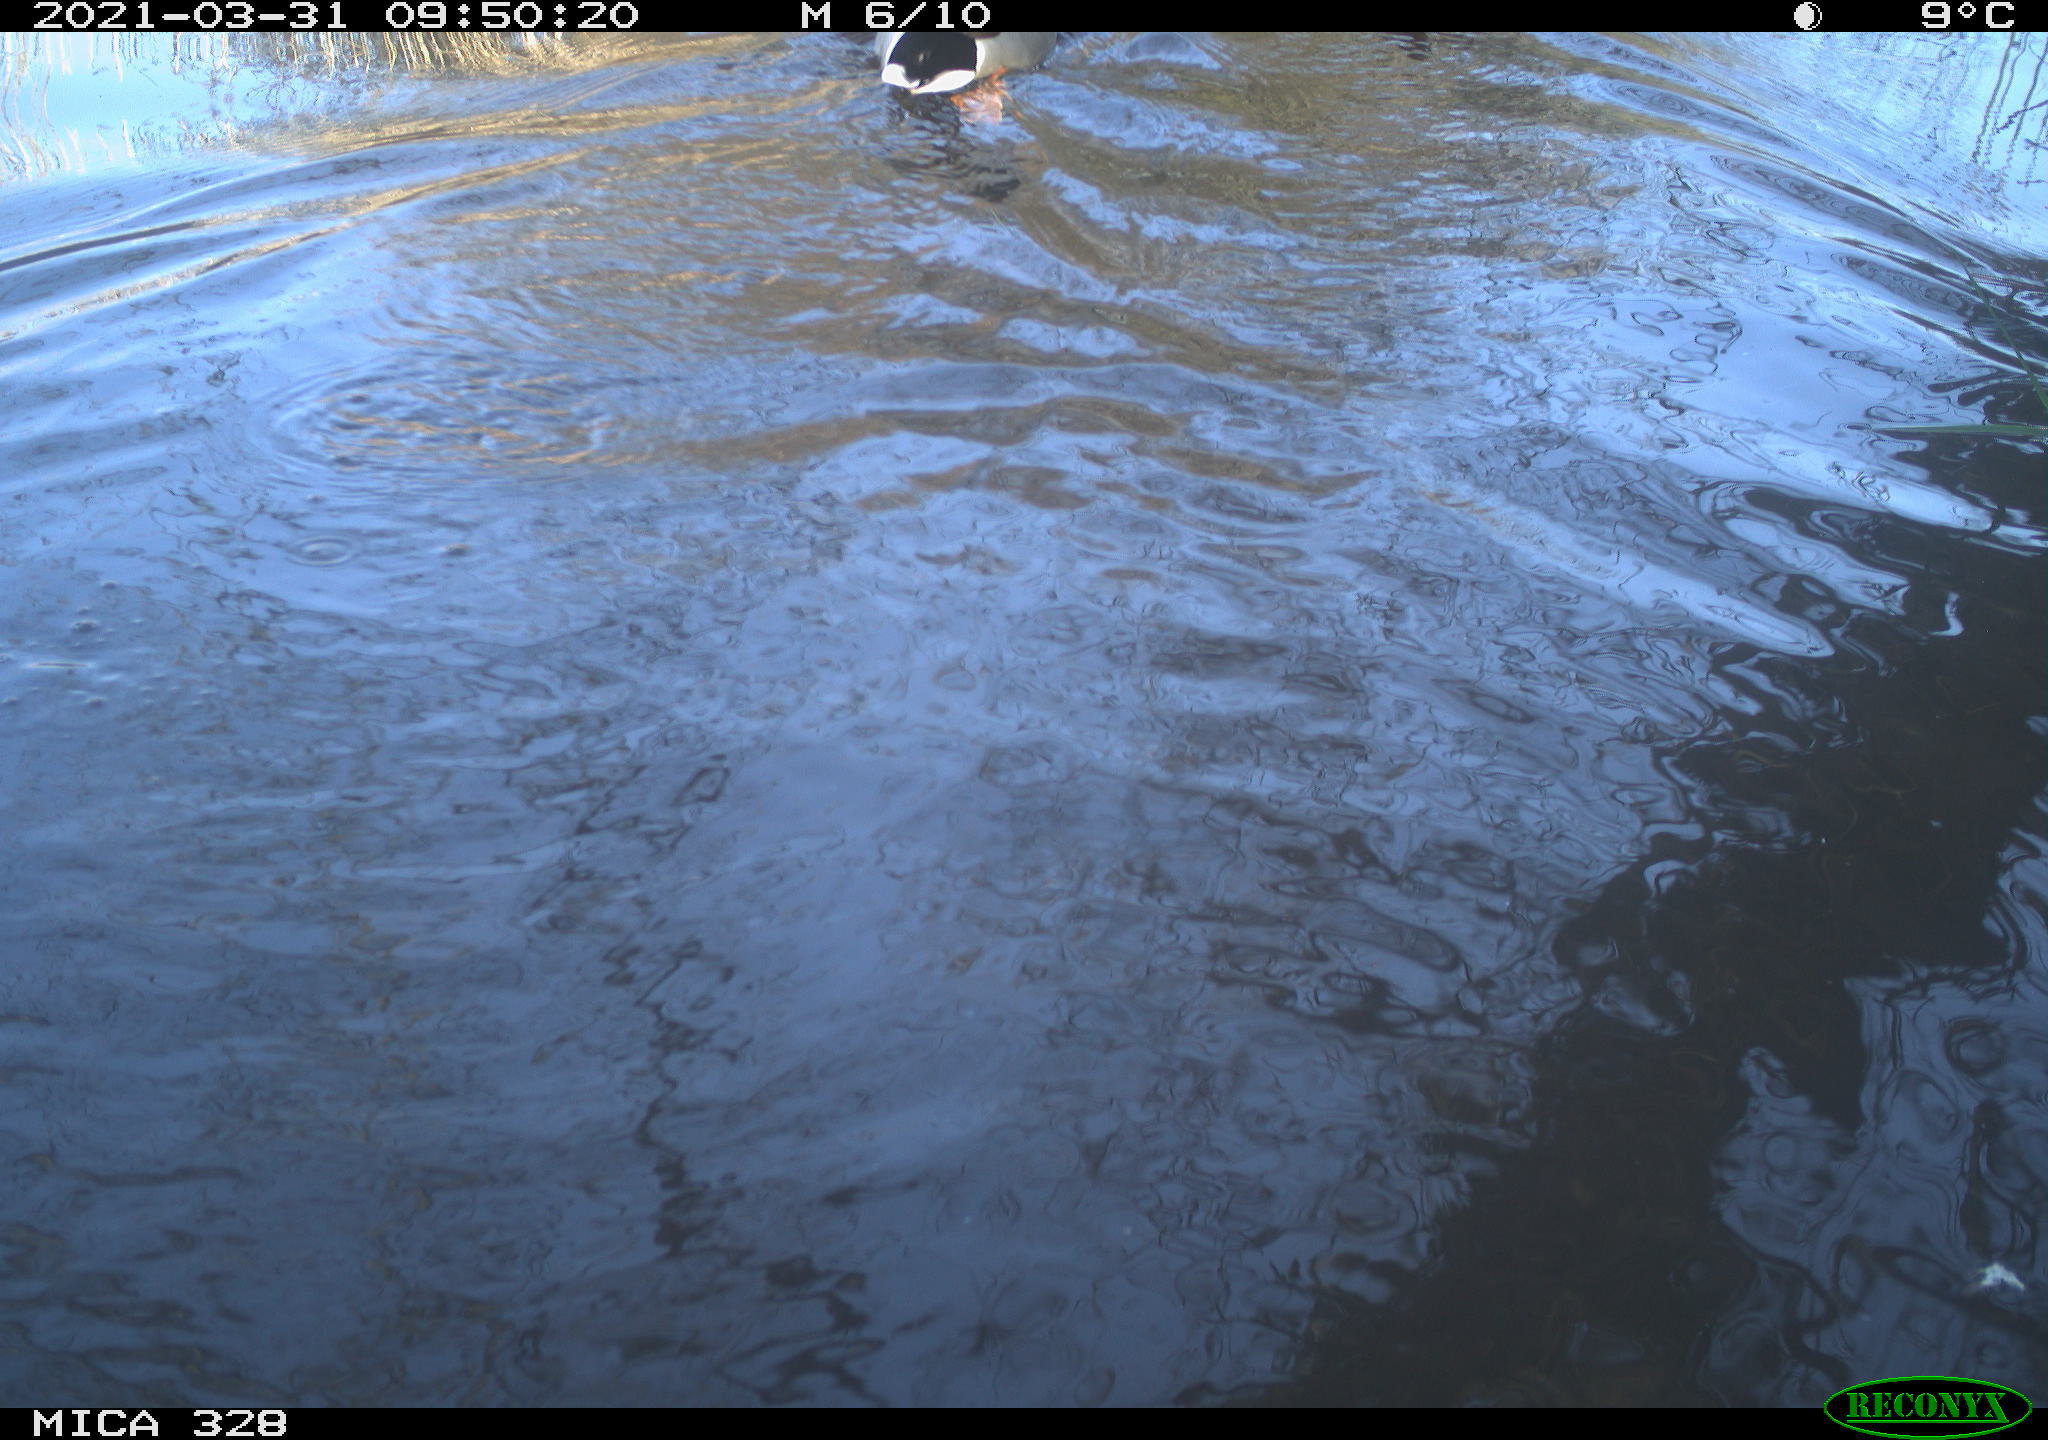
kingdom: Animalia
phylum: Chordata
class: Aves
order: Anseriformes
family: Anatidae
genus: Anas
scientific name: Anas platyrhynchos
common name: Mallard
